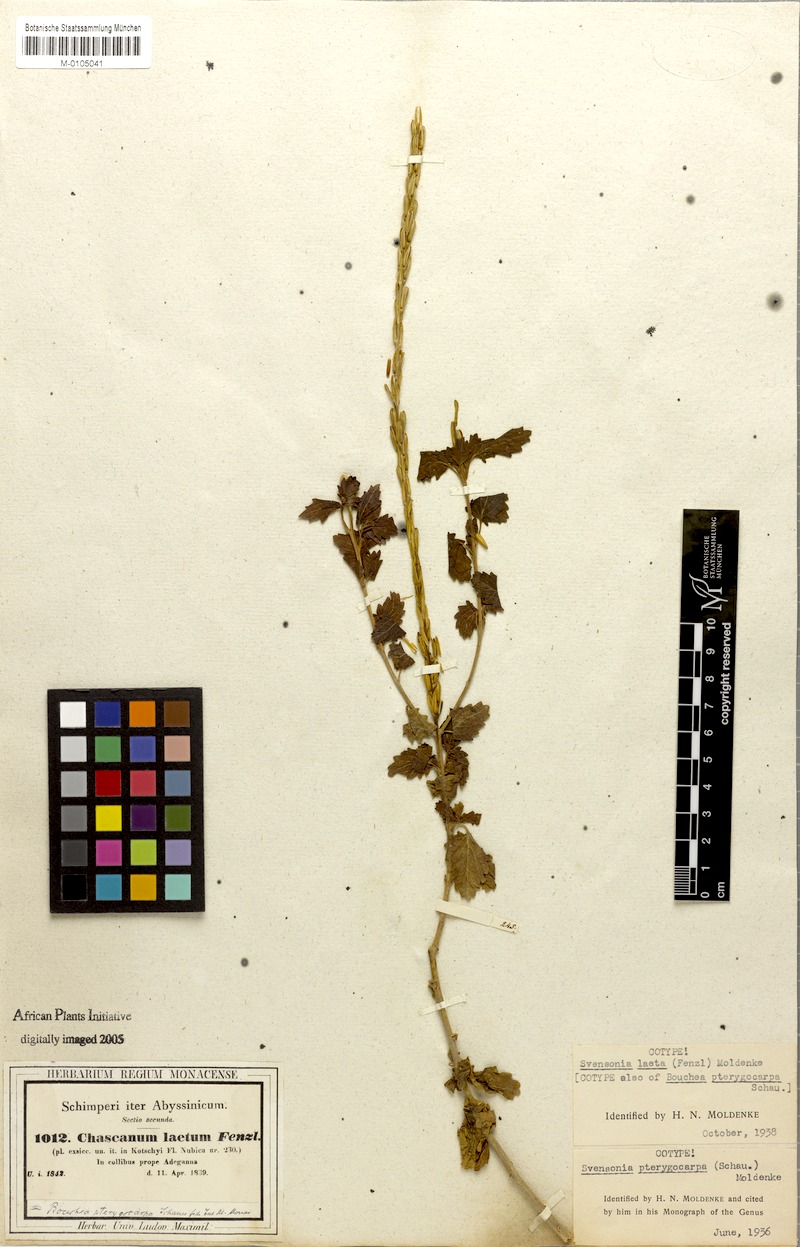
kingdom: Plantae
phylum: Tracheophyta
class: Magnoliopsida
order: Lamiales
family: Verbenaceae
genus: Chascanum
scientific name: Chascanum laetum
